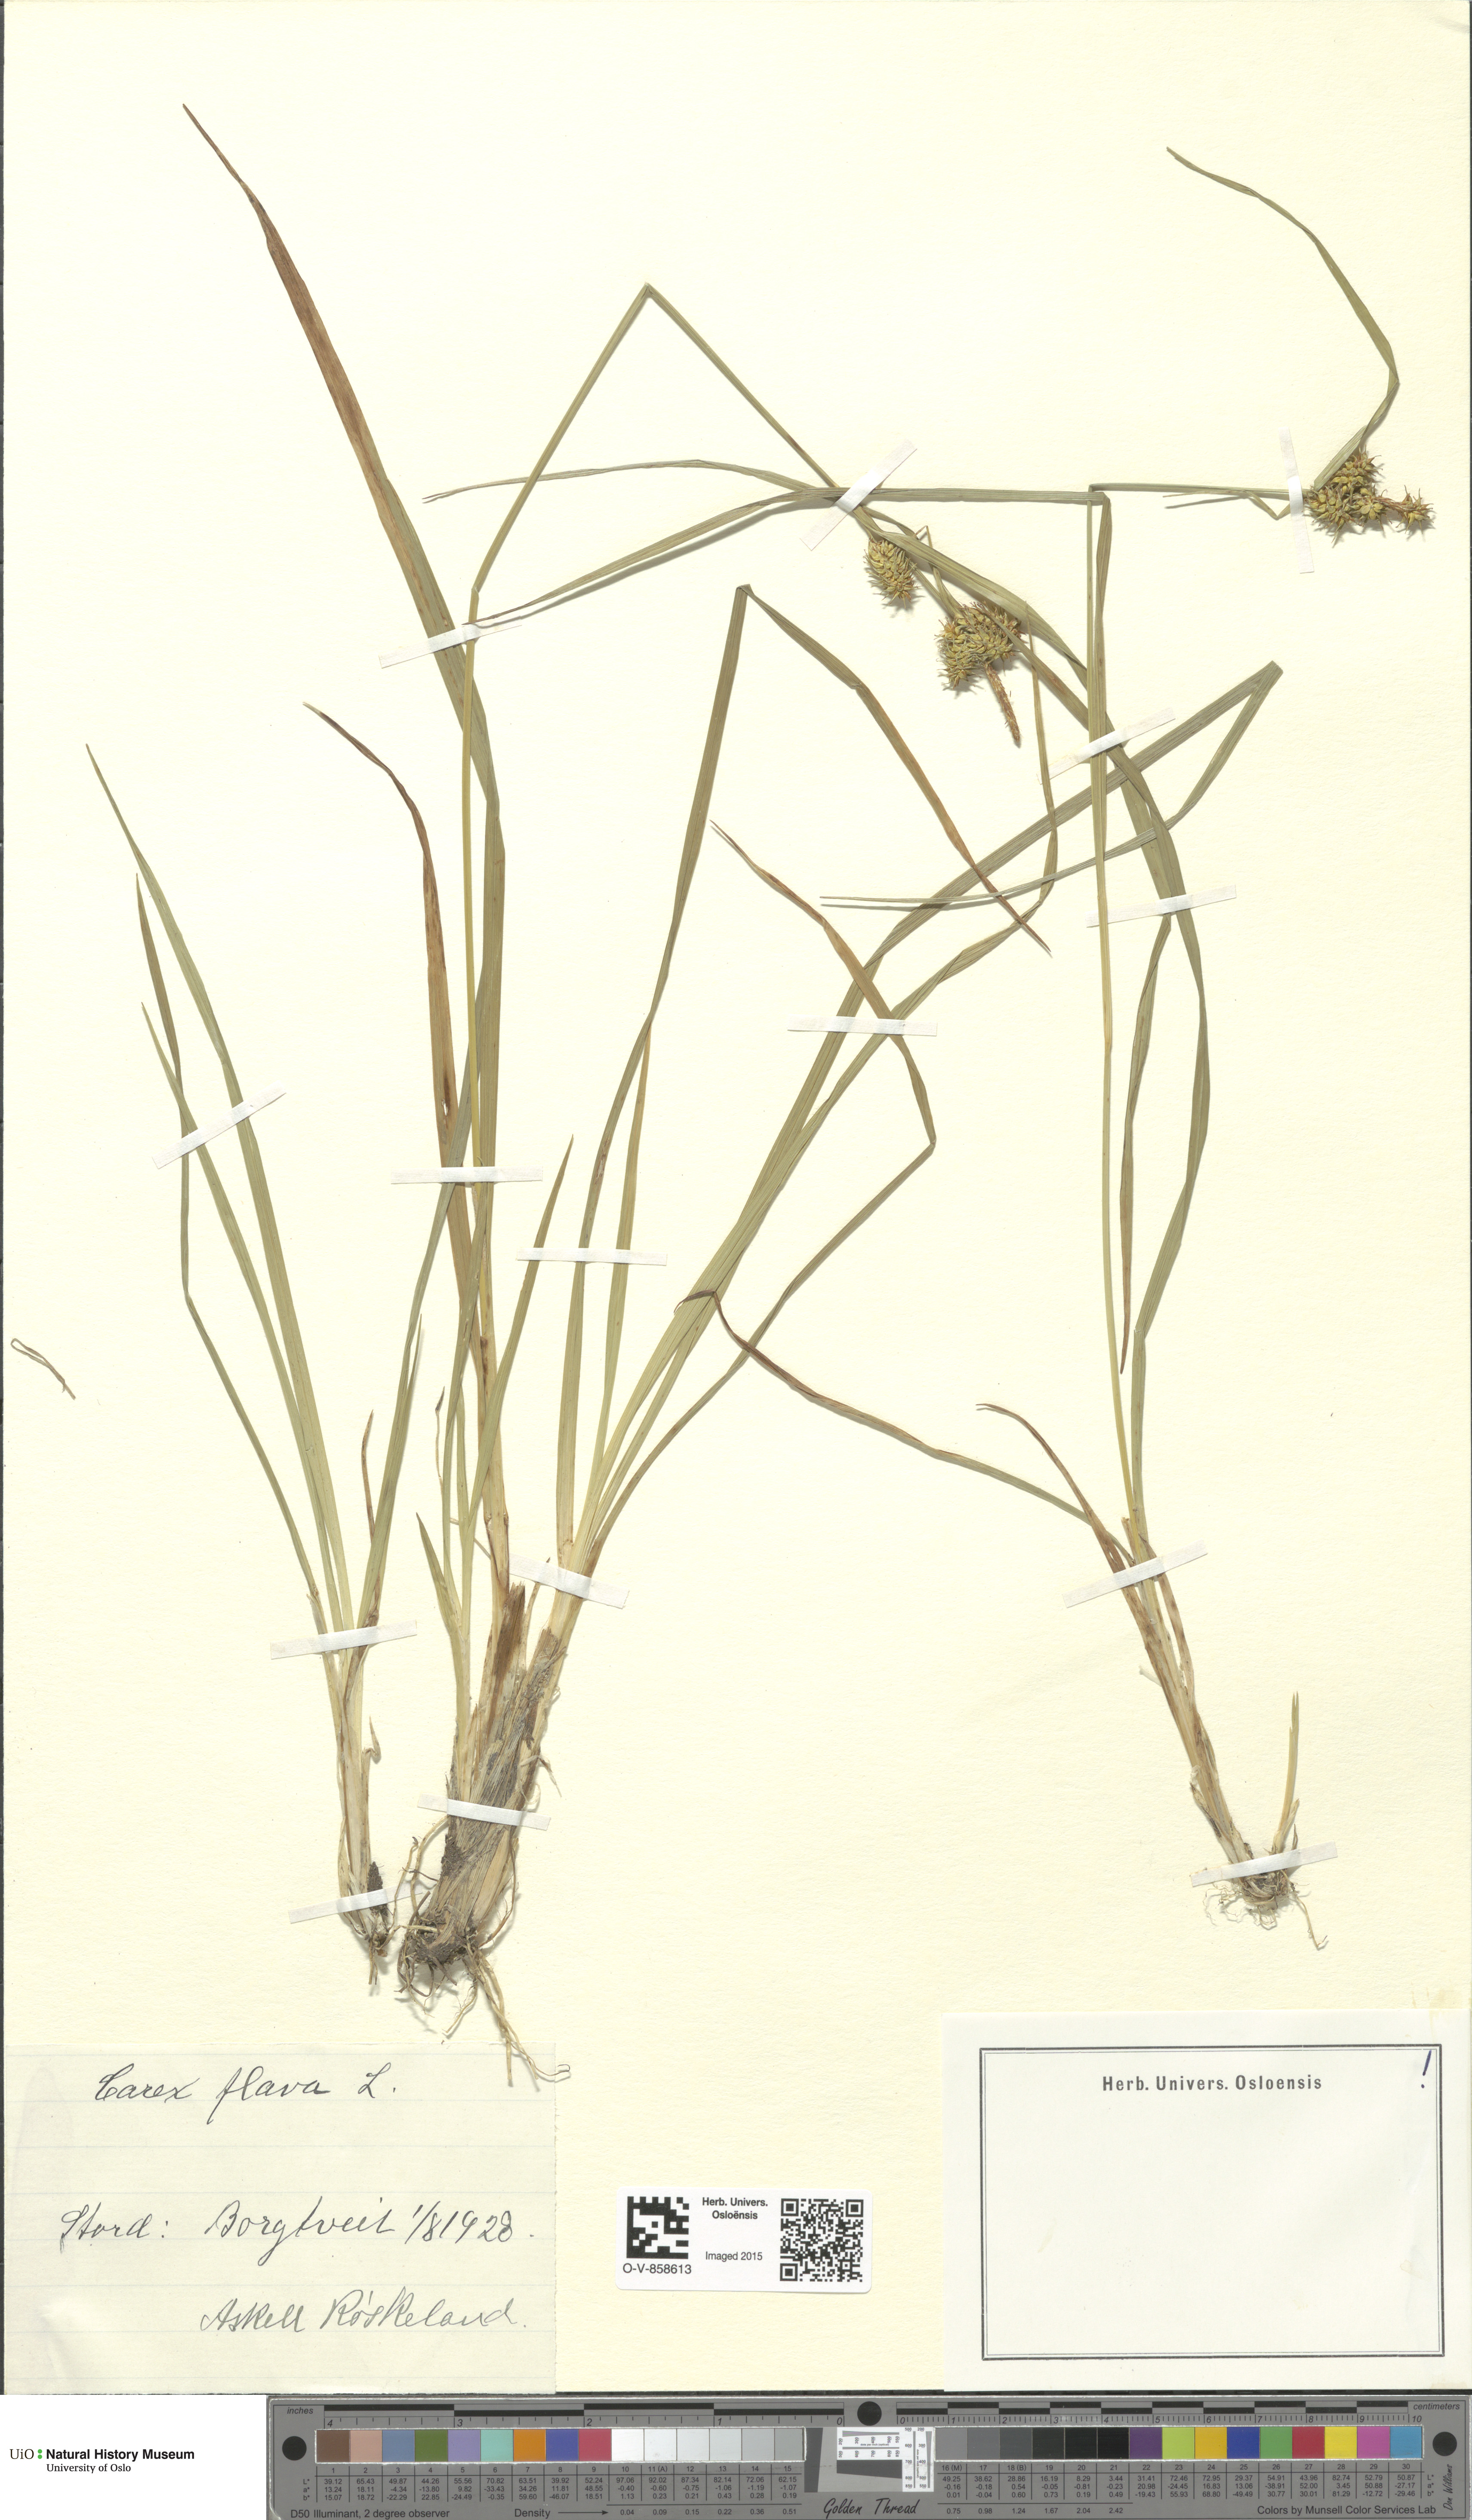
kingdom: Plantae
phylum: Tracheophyta
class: Liliopsida
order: Poales
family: Cyperaceae
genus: Carex
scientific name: Carex flava
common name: Large yellow-sedge
